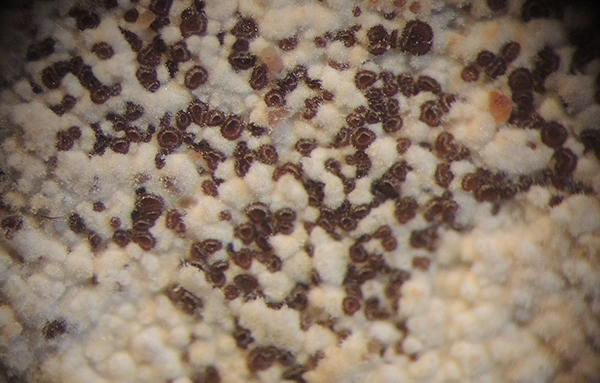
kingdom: Fungi
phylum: Ascomycota
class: Leotiomycetes
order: Helotiales
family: Hyphodiscaceae
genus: Hyphodiscus
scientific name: Hyphodiscus hymeniophilus
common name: snyltende sirskive
